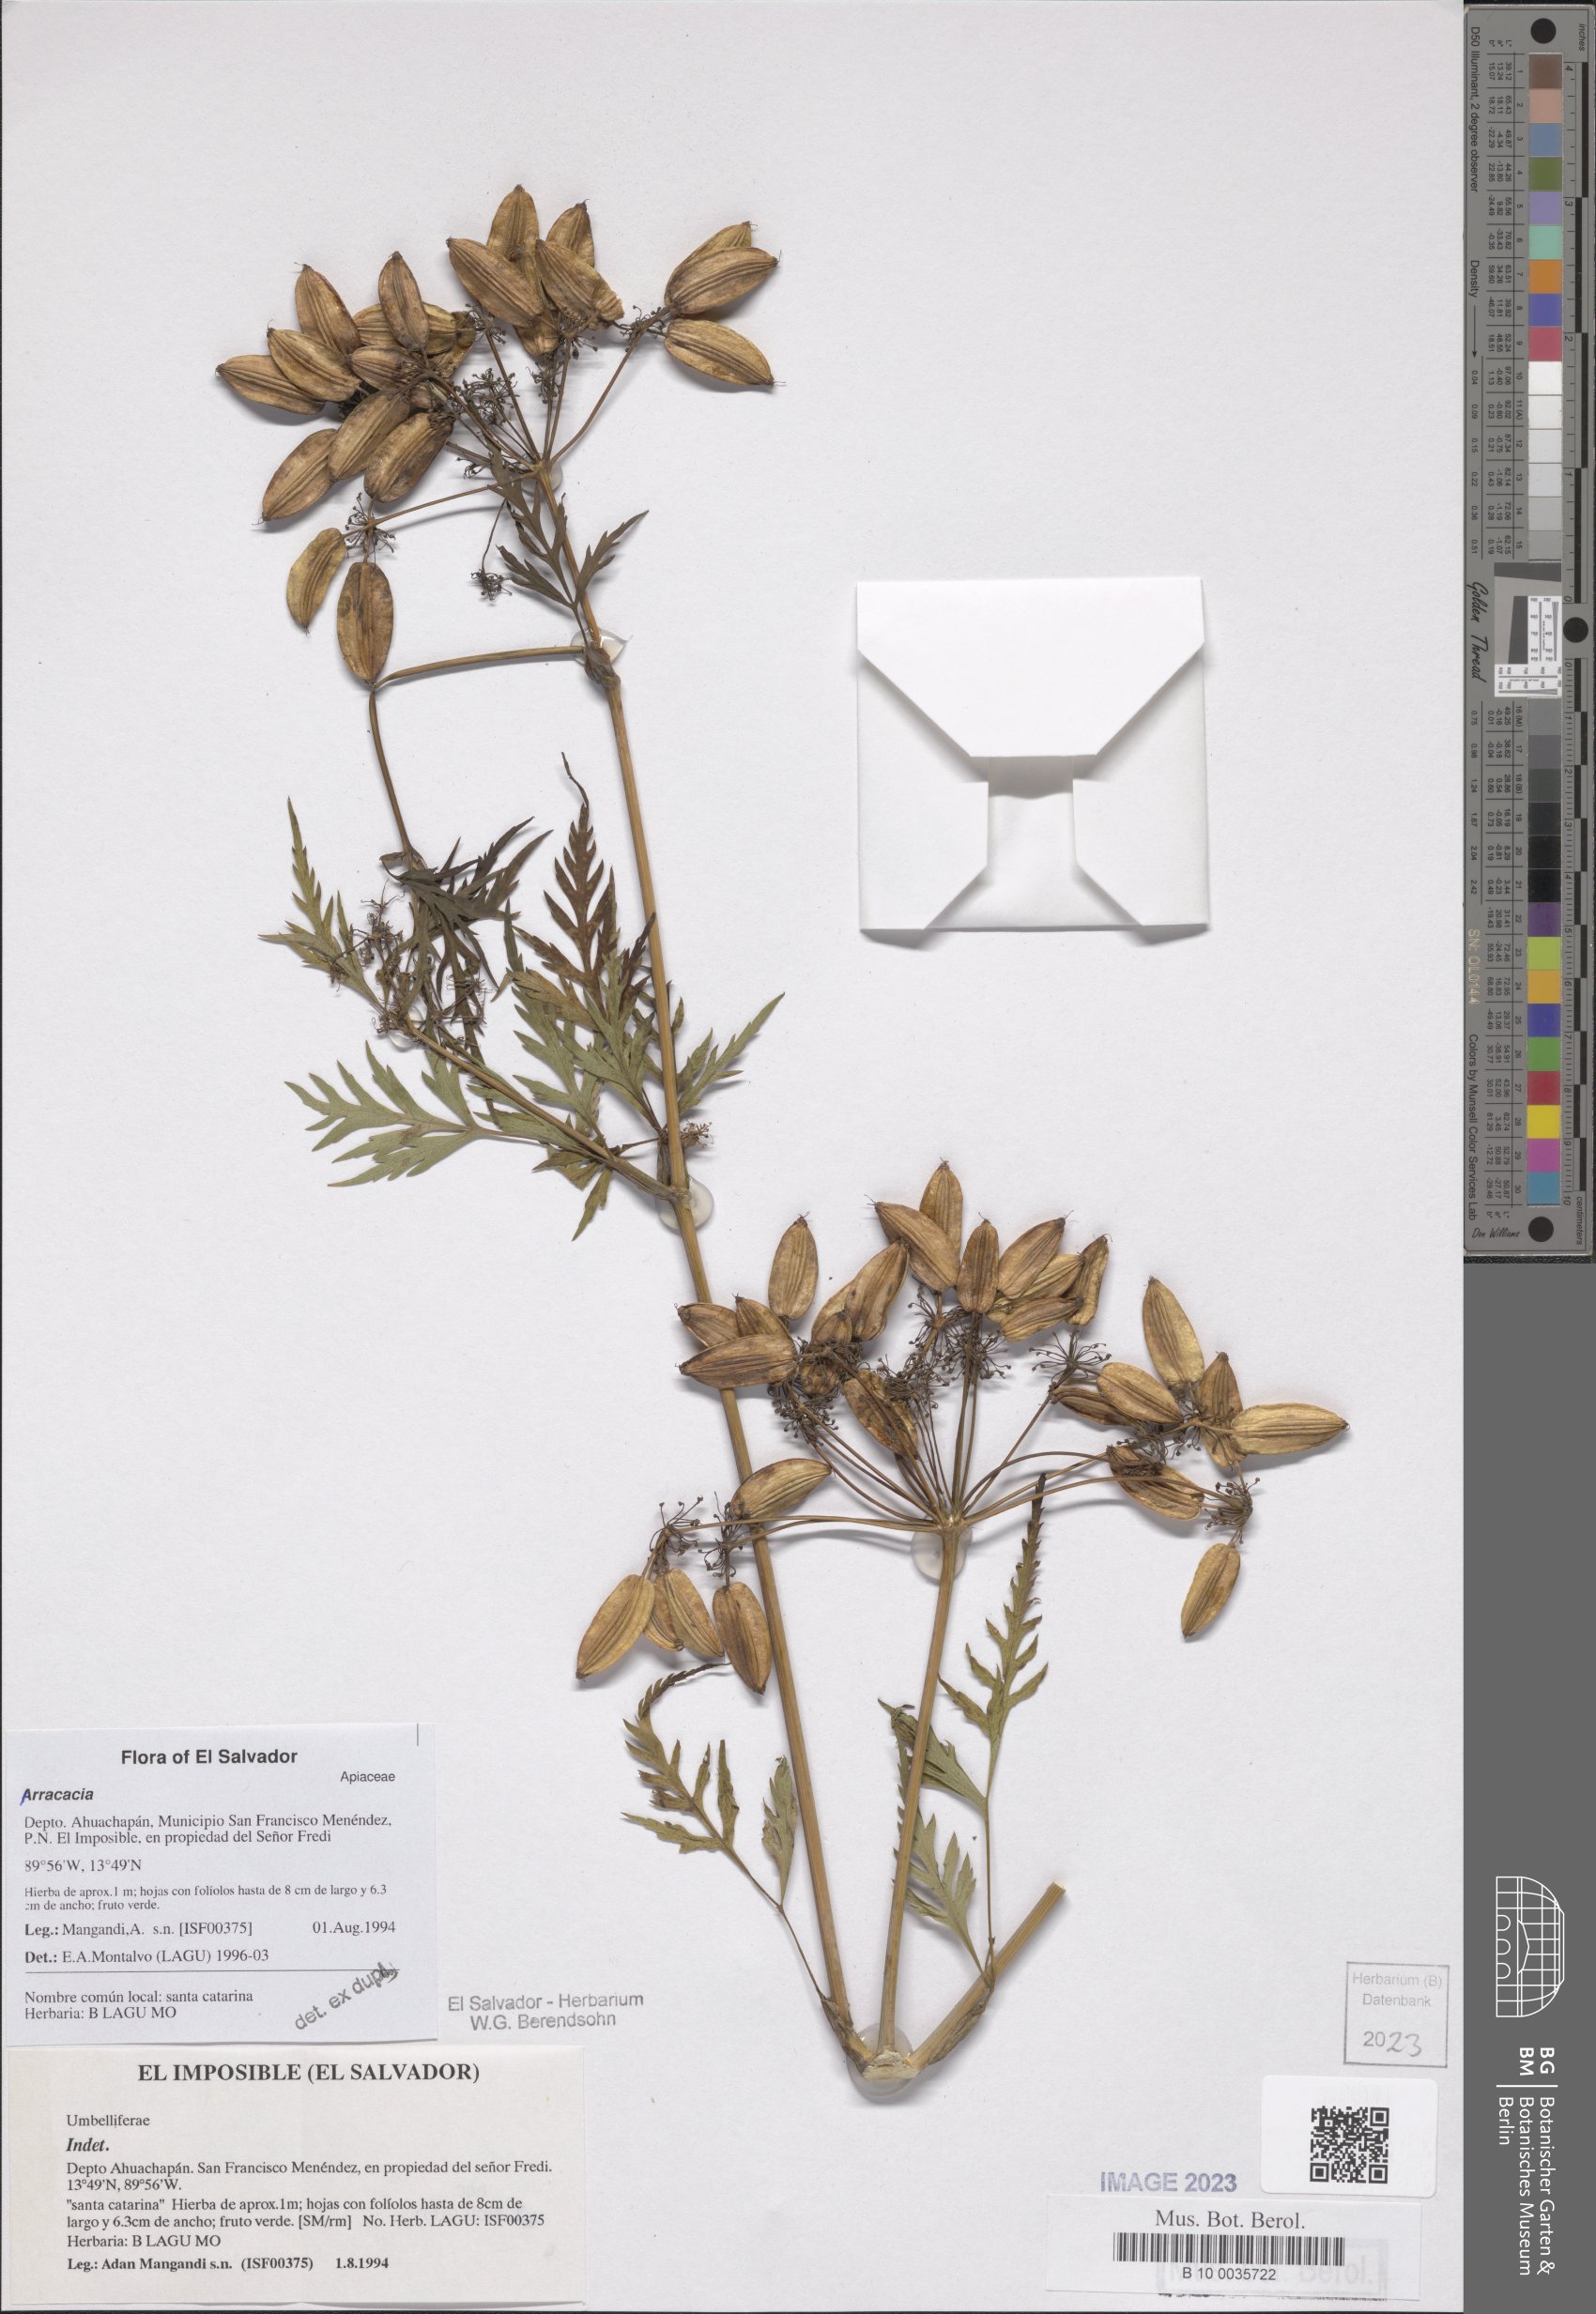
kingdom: Plantae
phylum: Tracheophyta
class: Magnoliopsida
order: Apiales
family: Apiaceae
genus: Arracacia
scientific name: Arracacia
